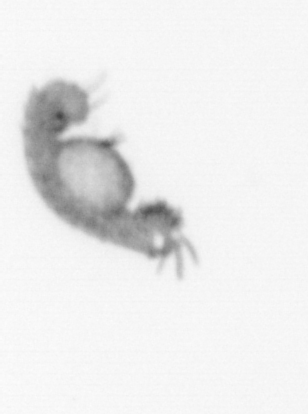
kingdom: Animalia
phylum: Annelida
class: Polychaeta
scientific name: Polychaeta
